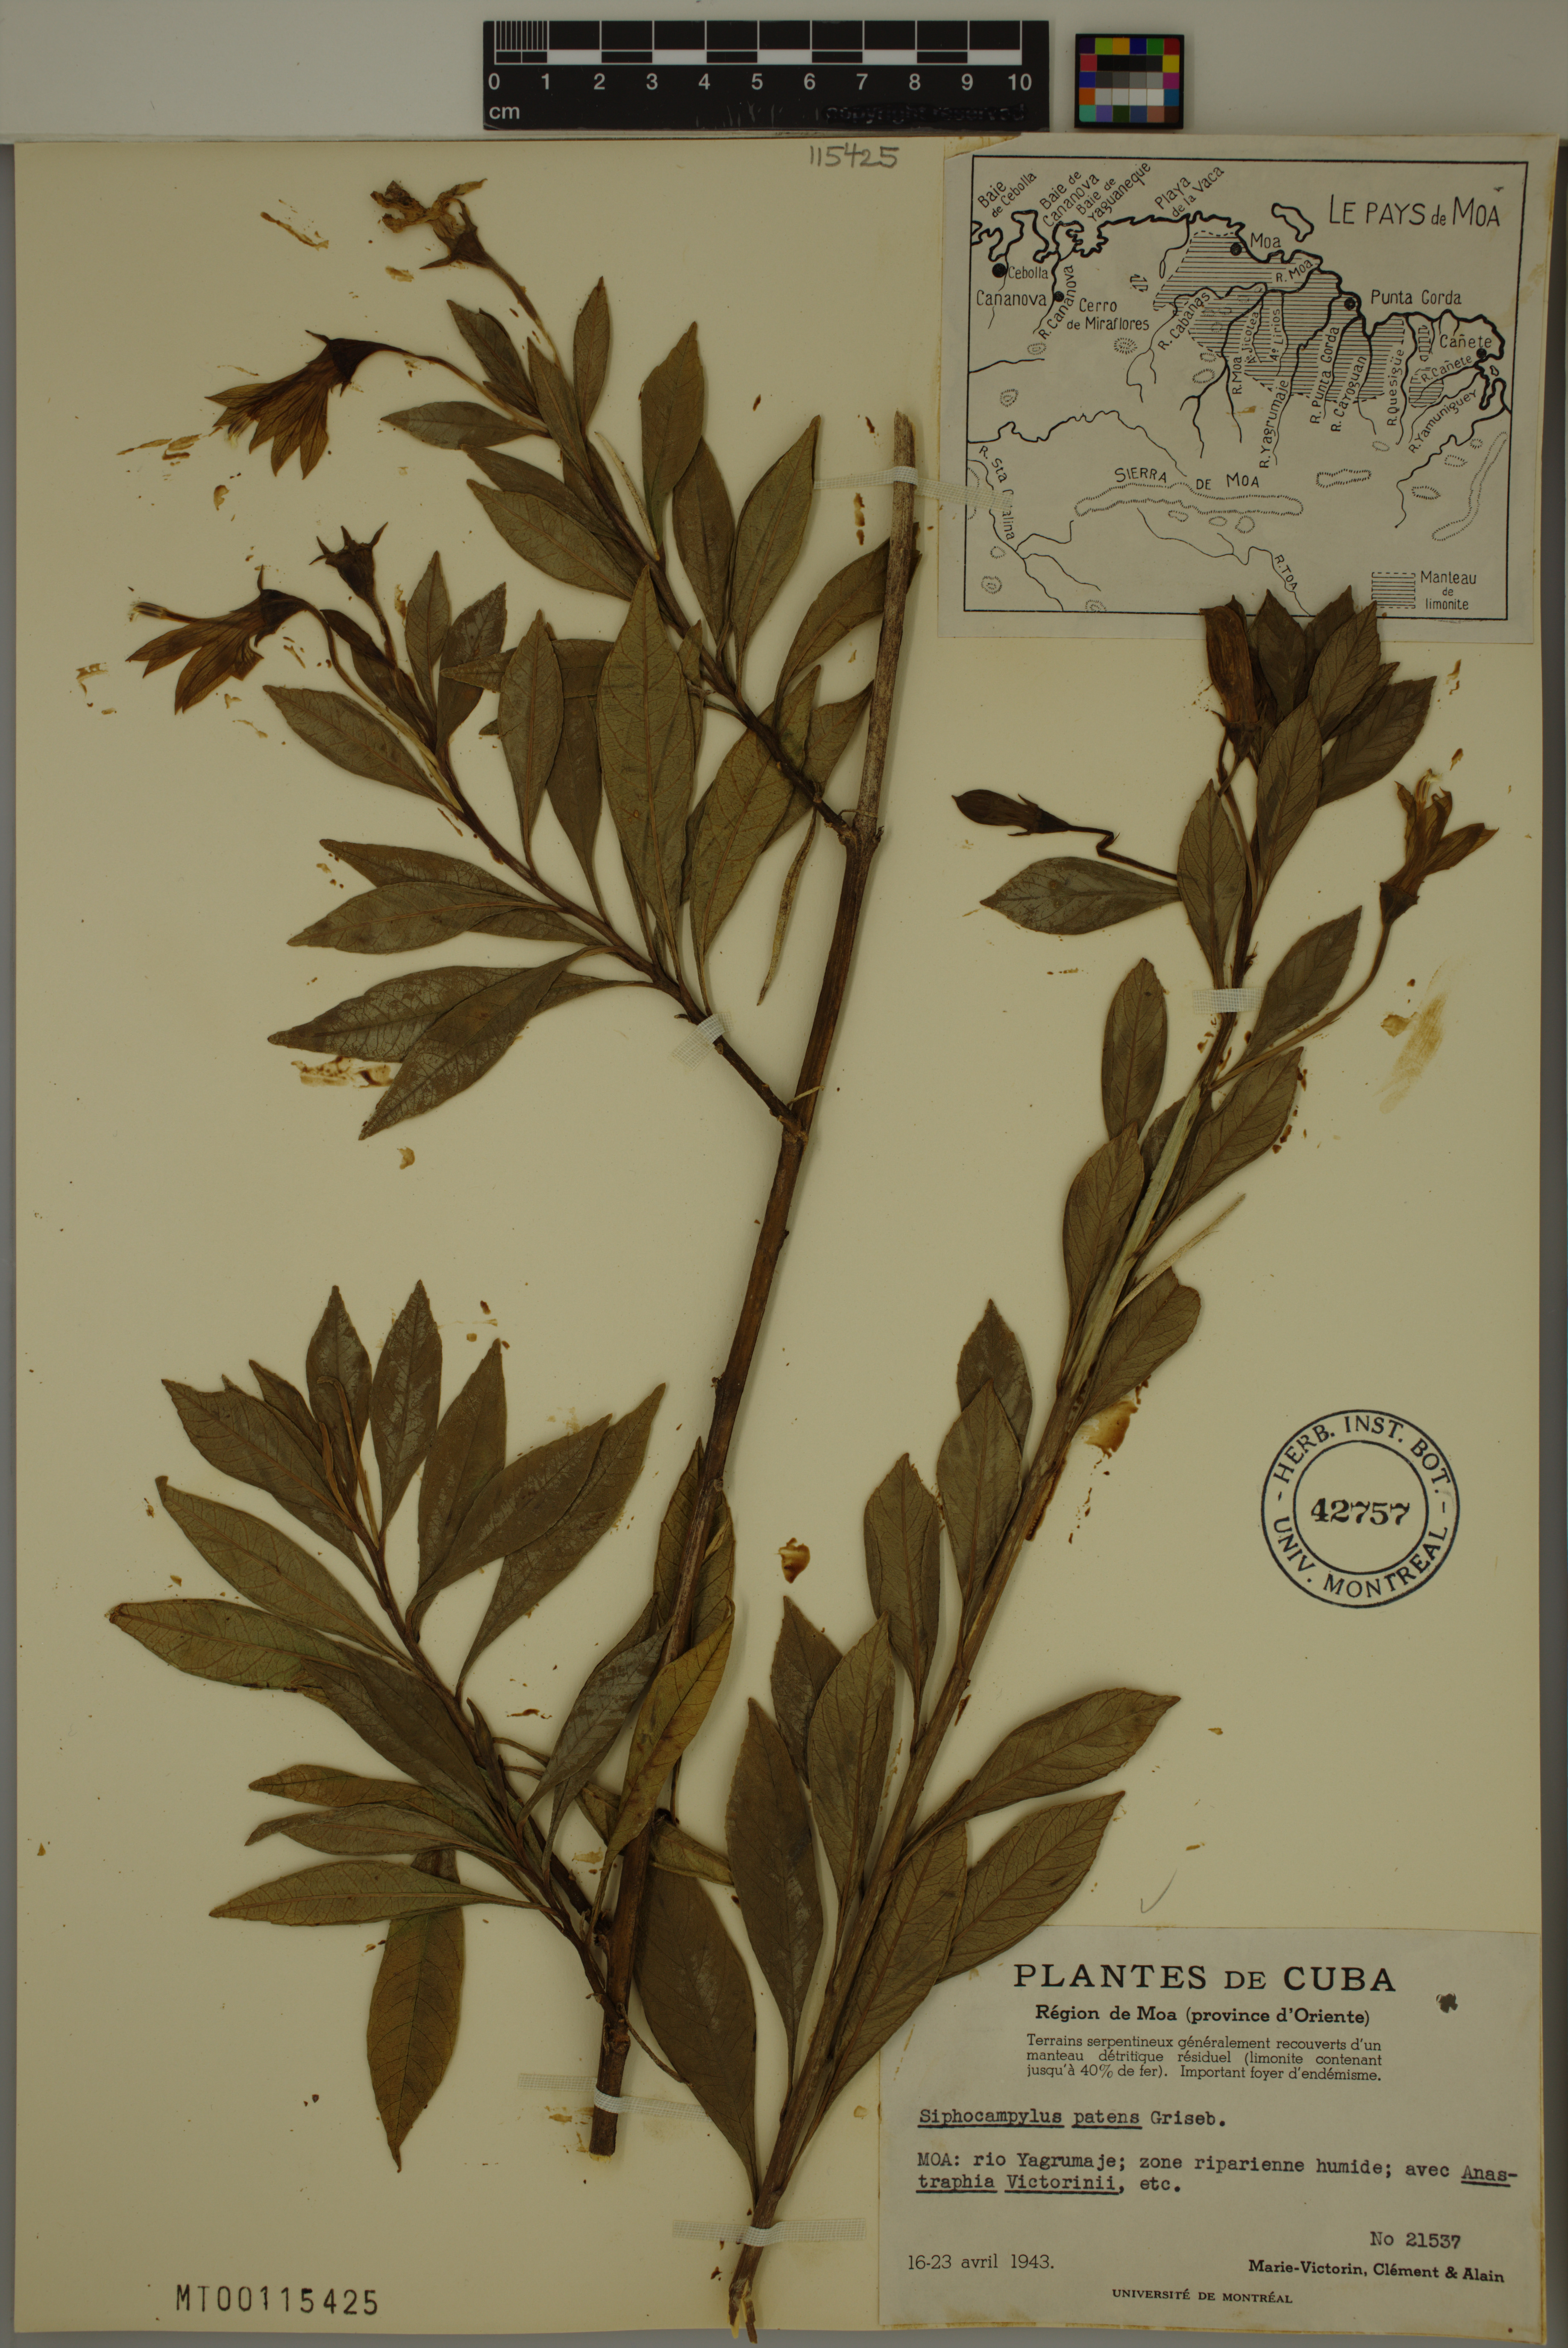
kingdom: Plantae
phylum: Tracheophyta
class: Magnoliopsida
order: Asterales
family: Campanulaceae
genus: Siphocampylus
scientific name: Siphocampylus patens
